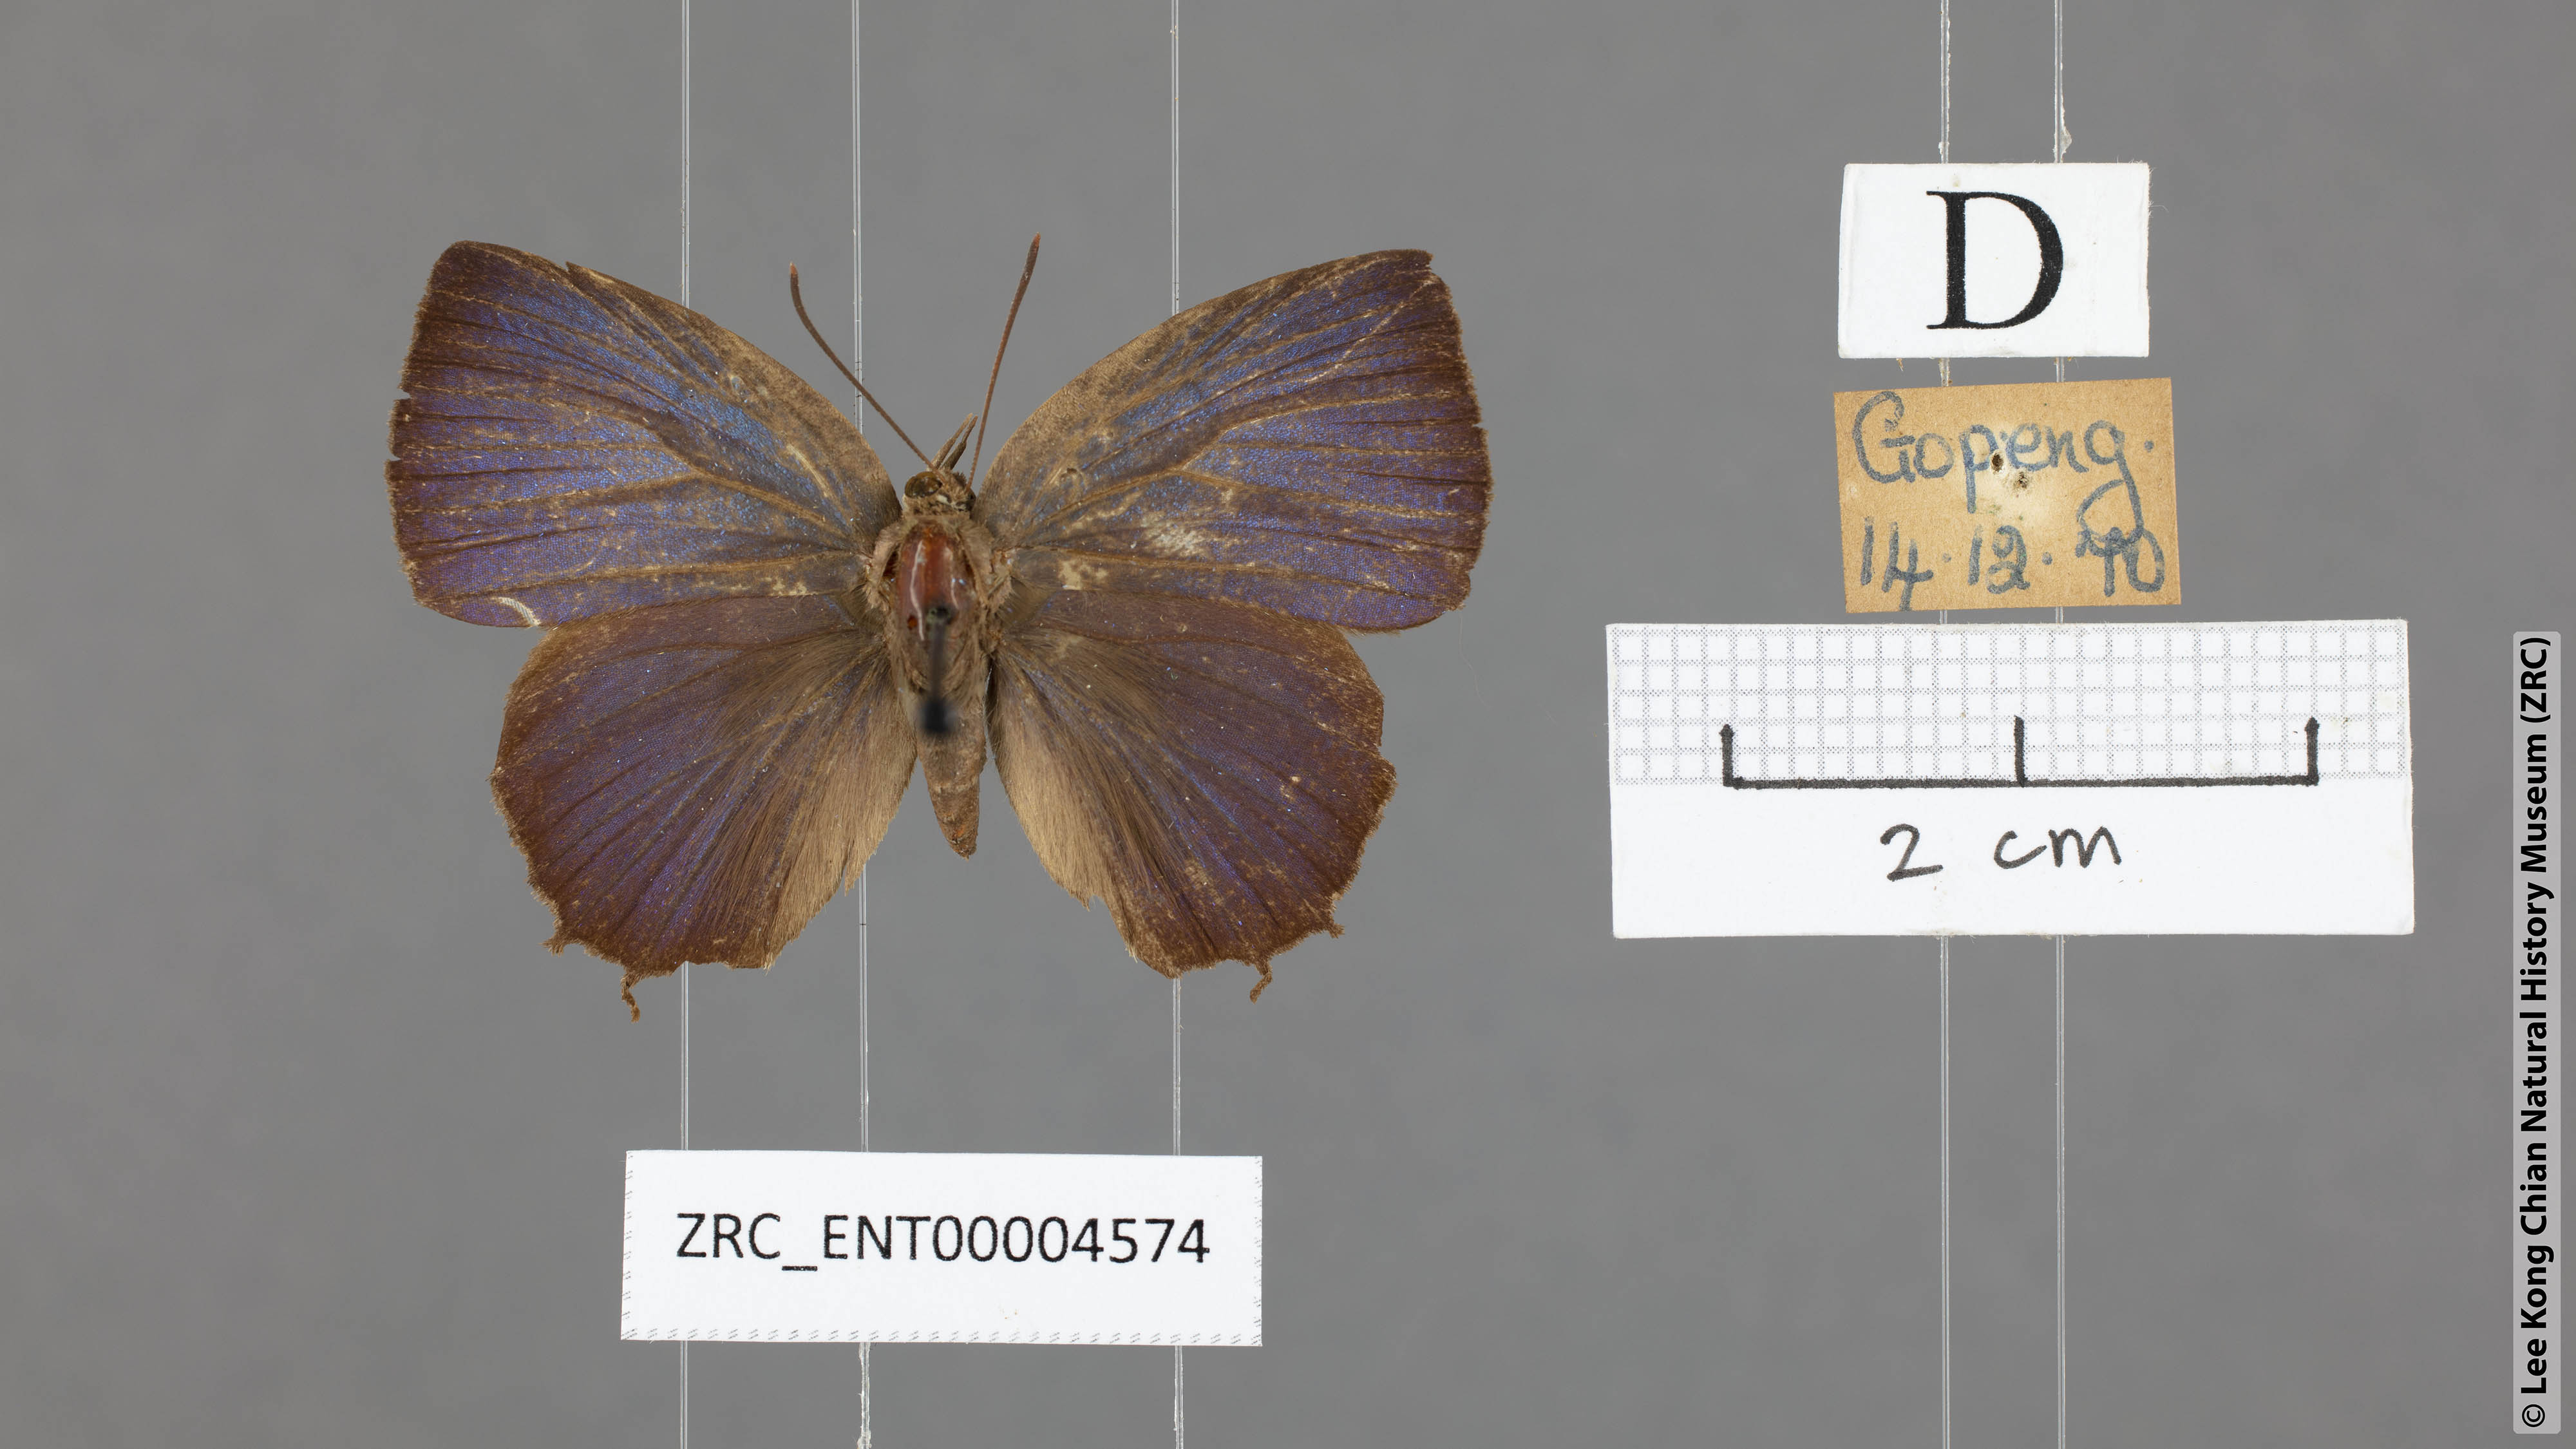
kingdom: Animalia
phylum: Arthropoda
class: Insecta
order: Lepidoptera
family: Lycaenidae
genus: Surendra
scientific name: Surendra vivarna
